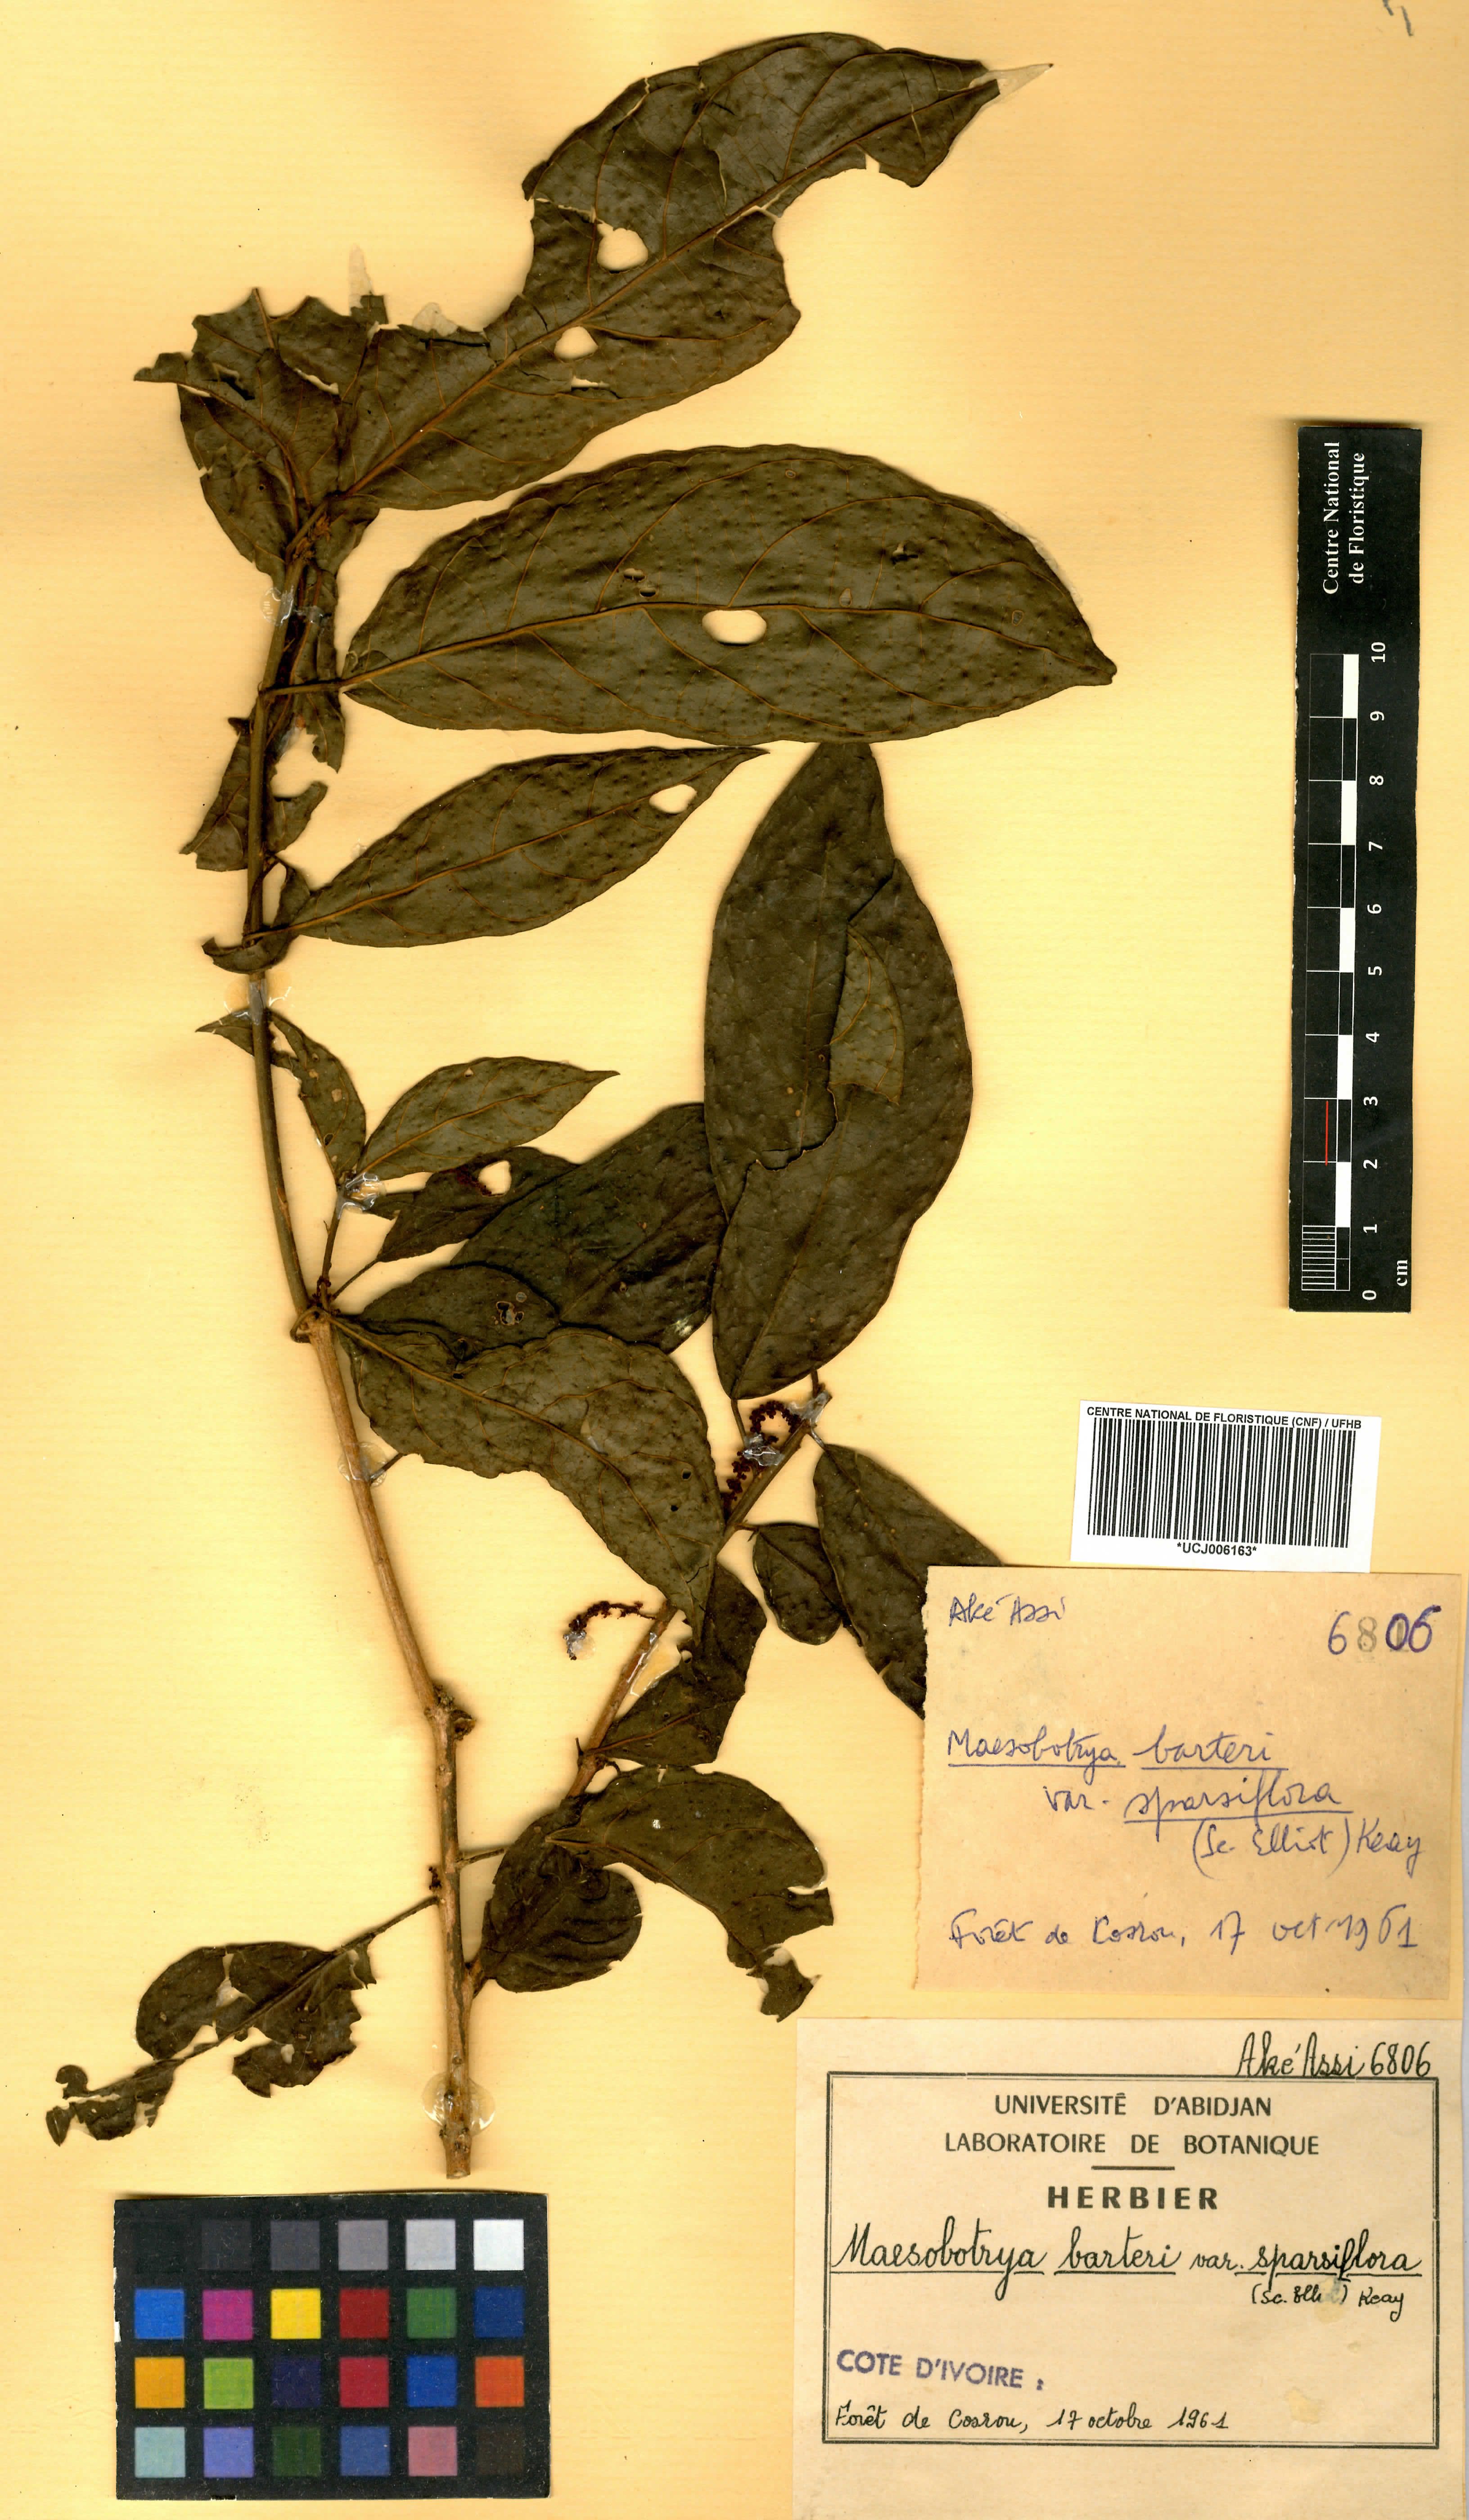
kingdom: Plantae
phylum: Tracheophyta
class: Magnoliopsida
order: Malpighiales
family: Phyllanthaceae
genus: Maesobotrya
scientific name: Maesobotrya barteri
